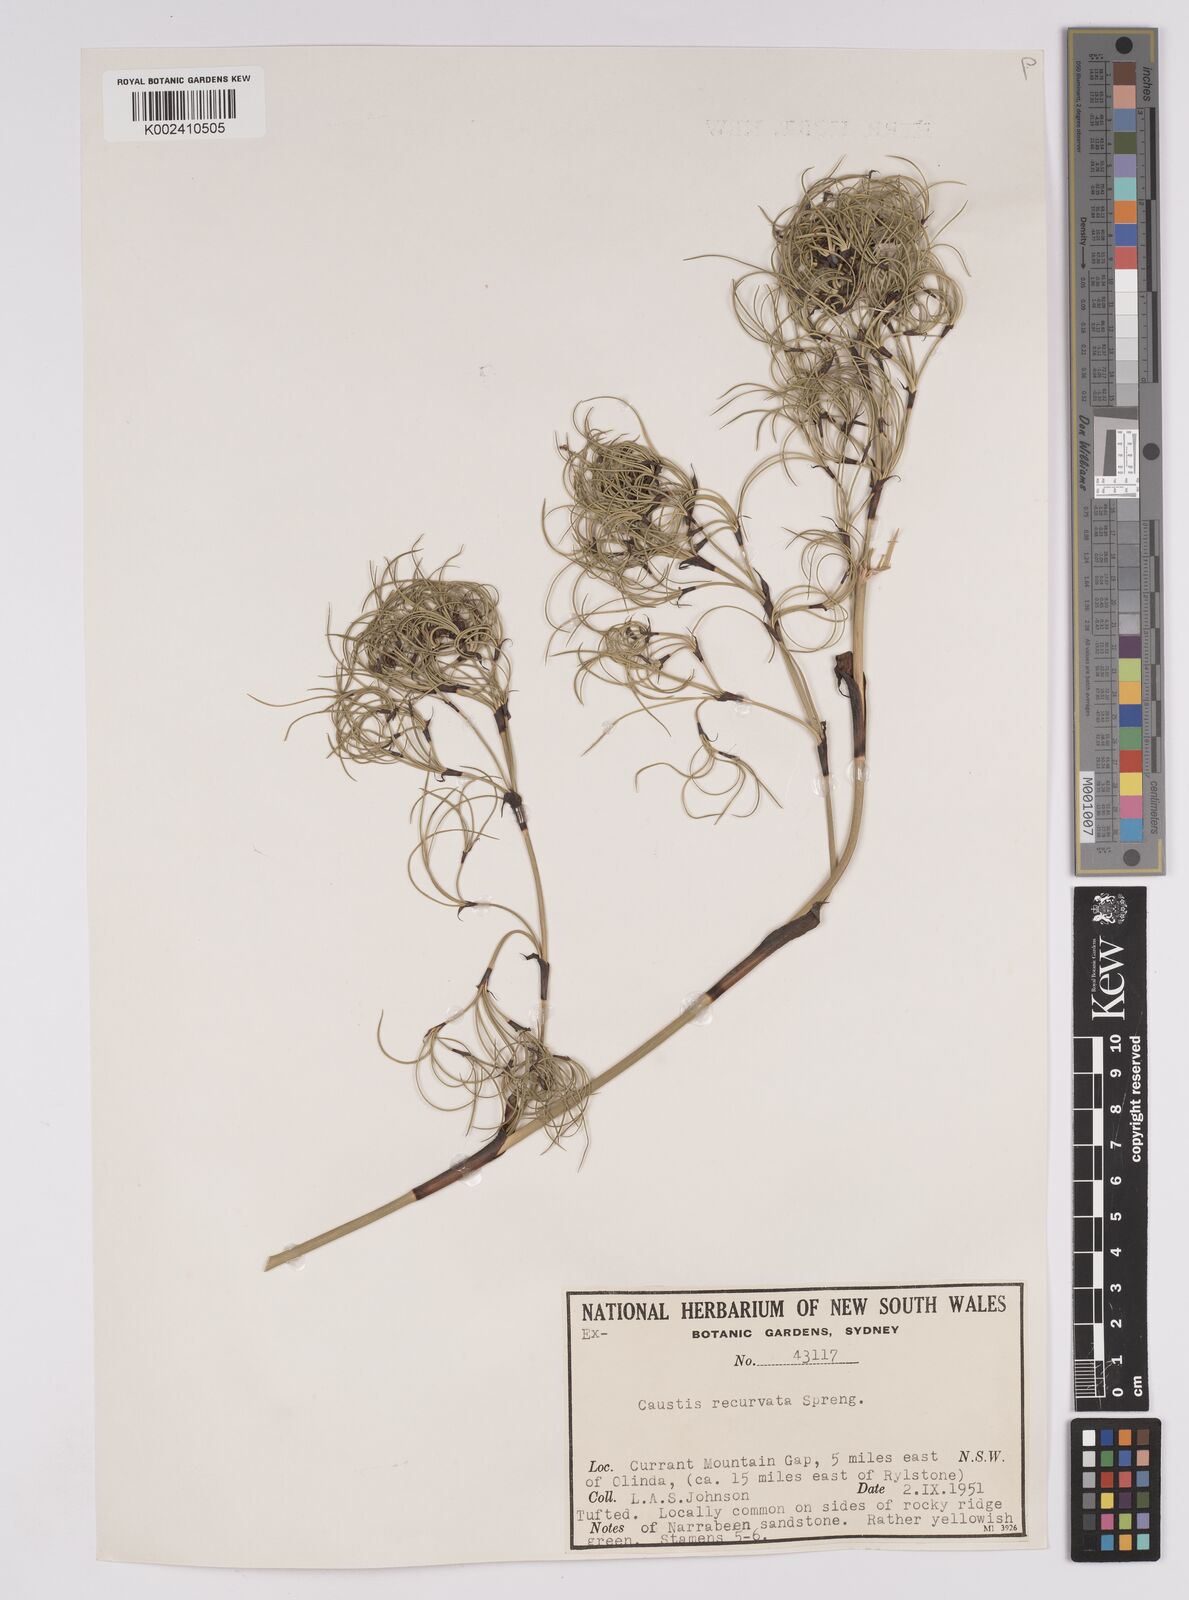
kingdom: Plantae
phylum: Tracheophyta
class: Liliopsida
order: Poales
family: Cyperaceae
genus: Caustis
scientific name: Caustis recurvata
